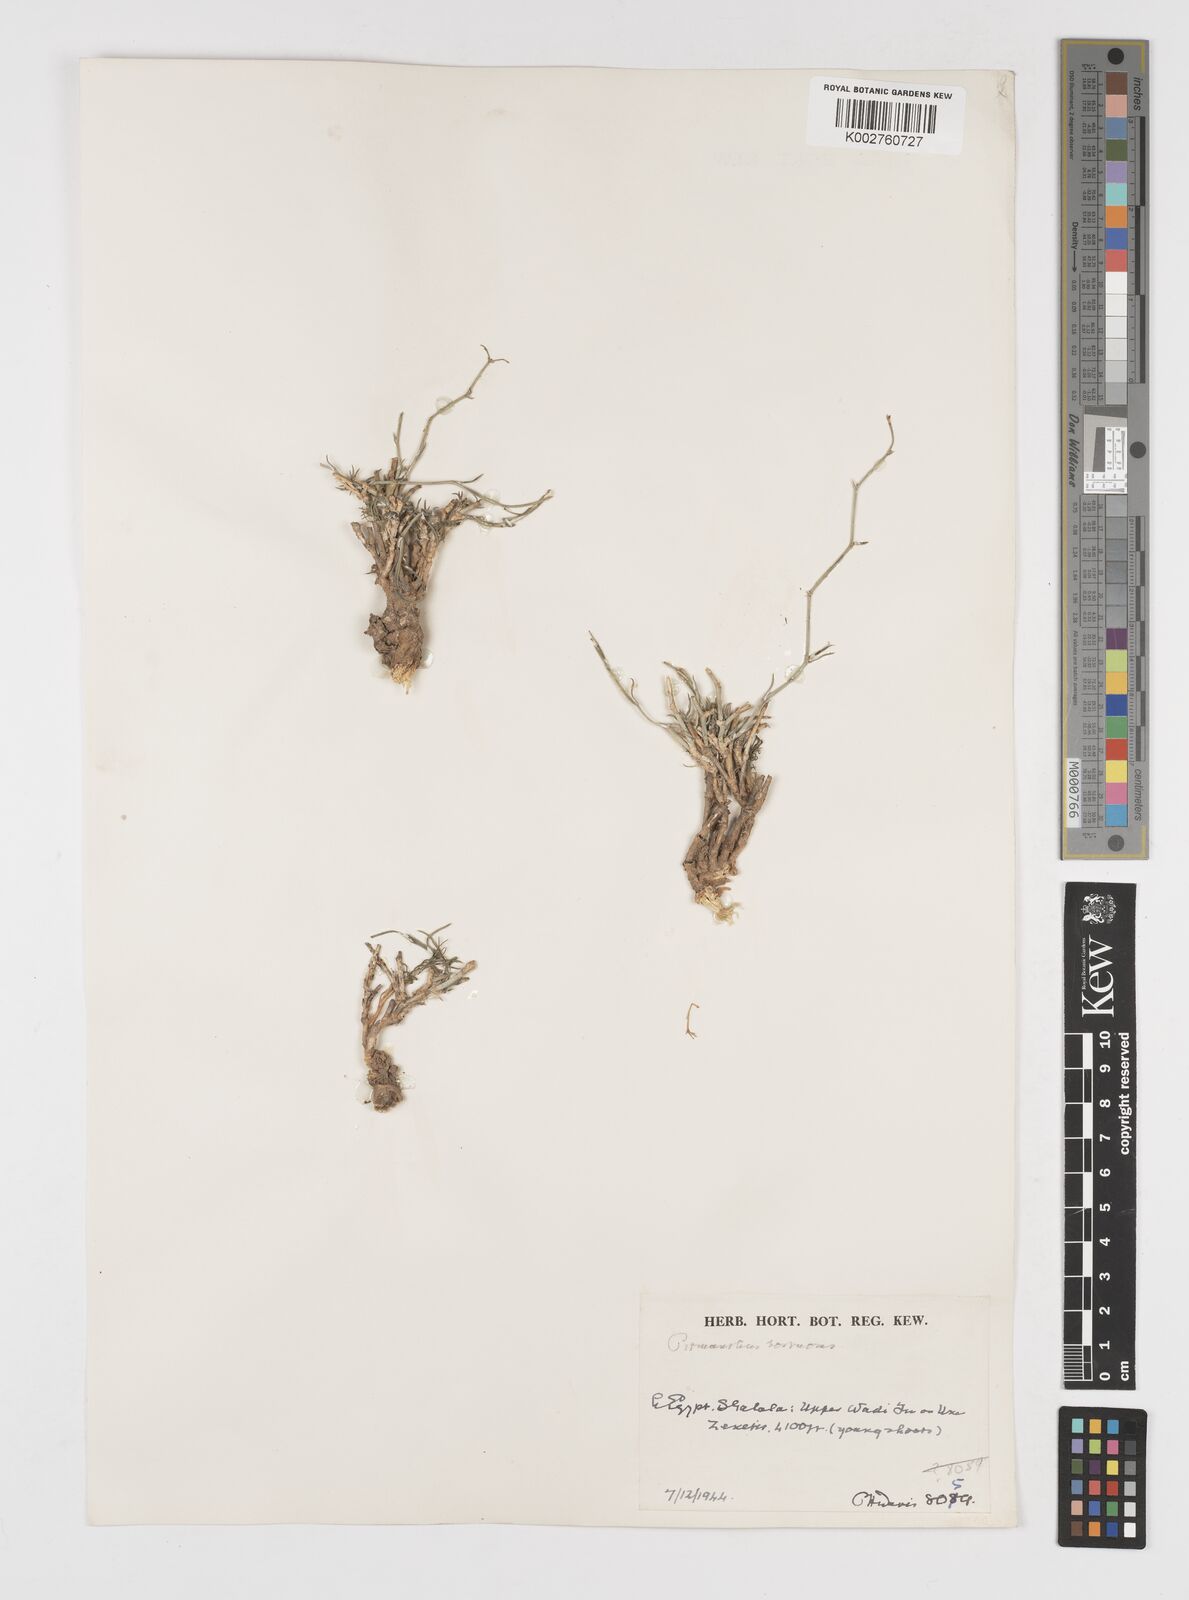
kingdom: Plantae
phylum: Tracheophyta
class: Magnoliopsida
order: Apiales
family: Apiaceae
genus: Deverra
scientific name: Deverra tortuosa
